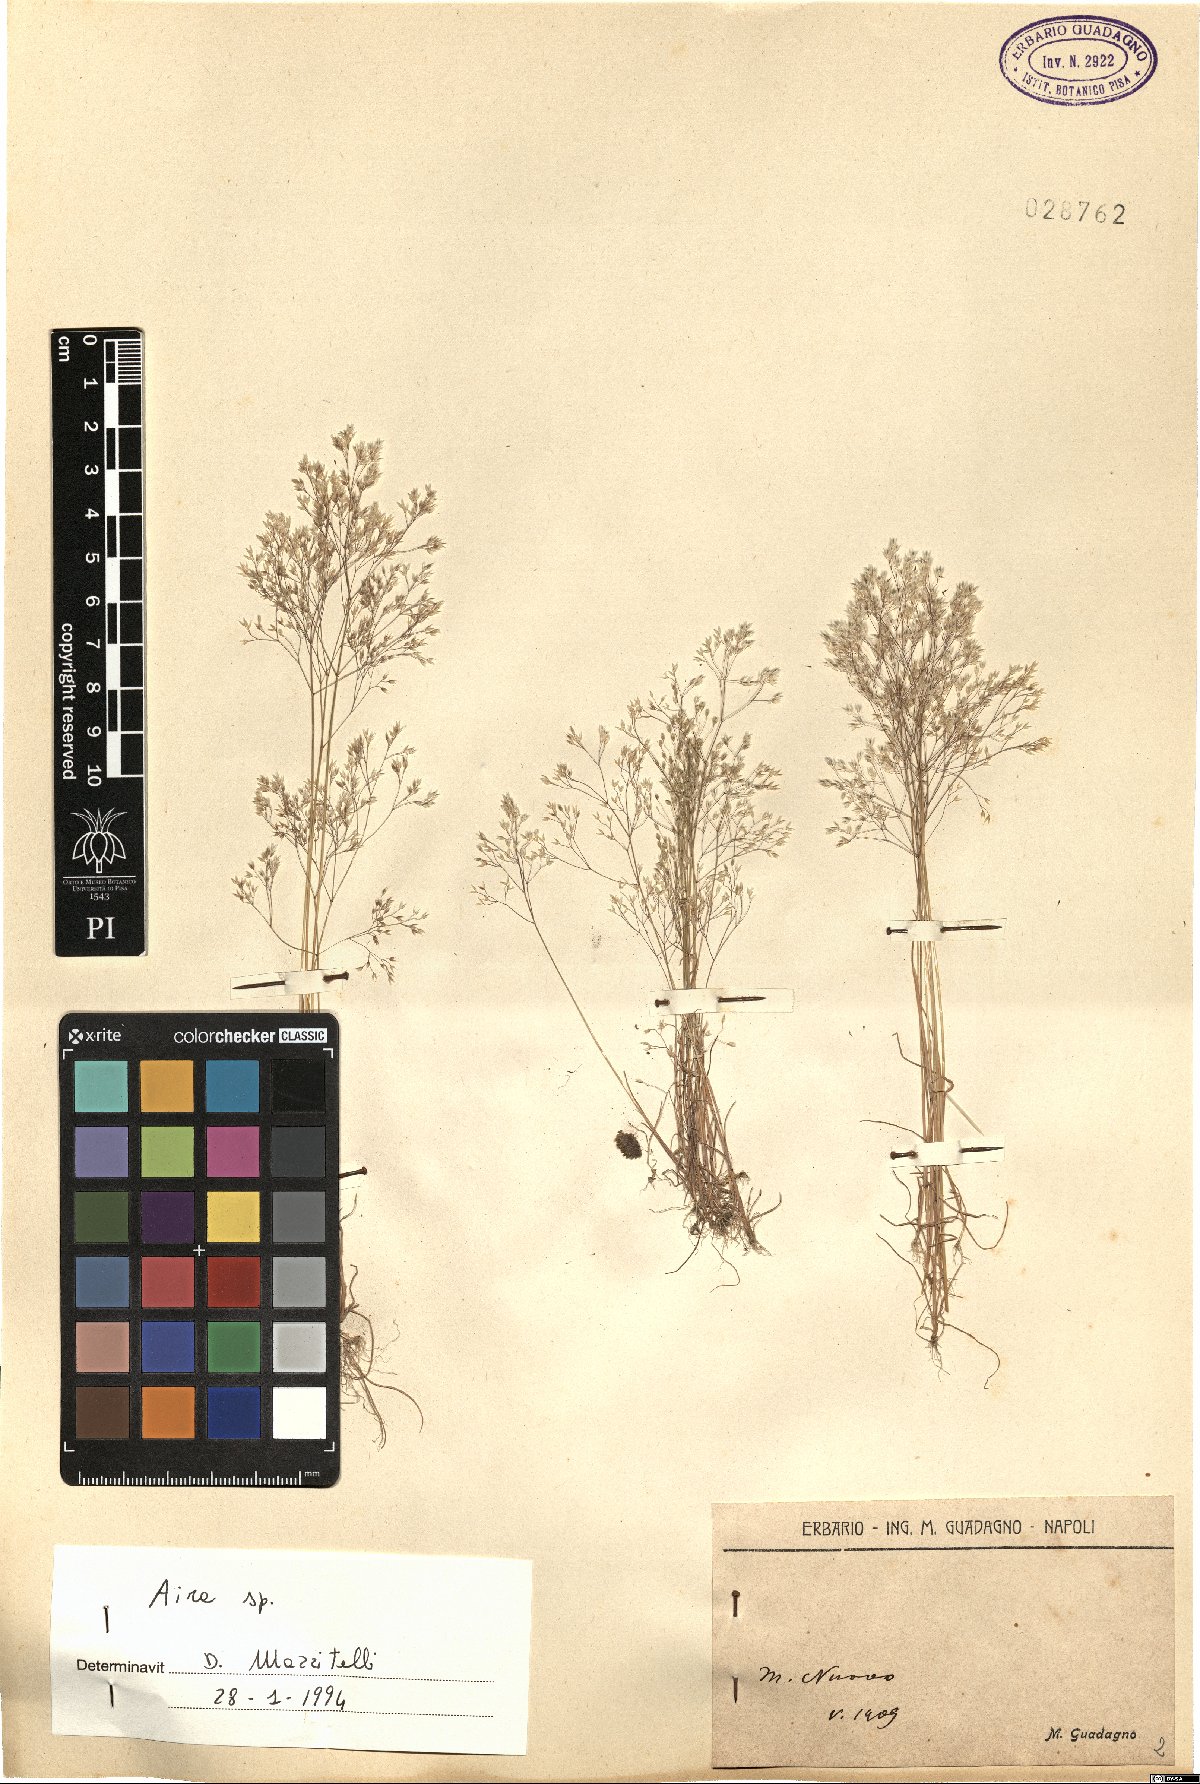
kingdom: Plantae
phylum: Tracheophyta
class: Liliopsida
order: Poales
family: Poaceae
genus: Aira
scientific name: Aira
